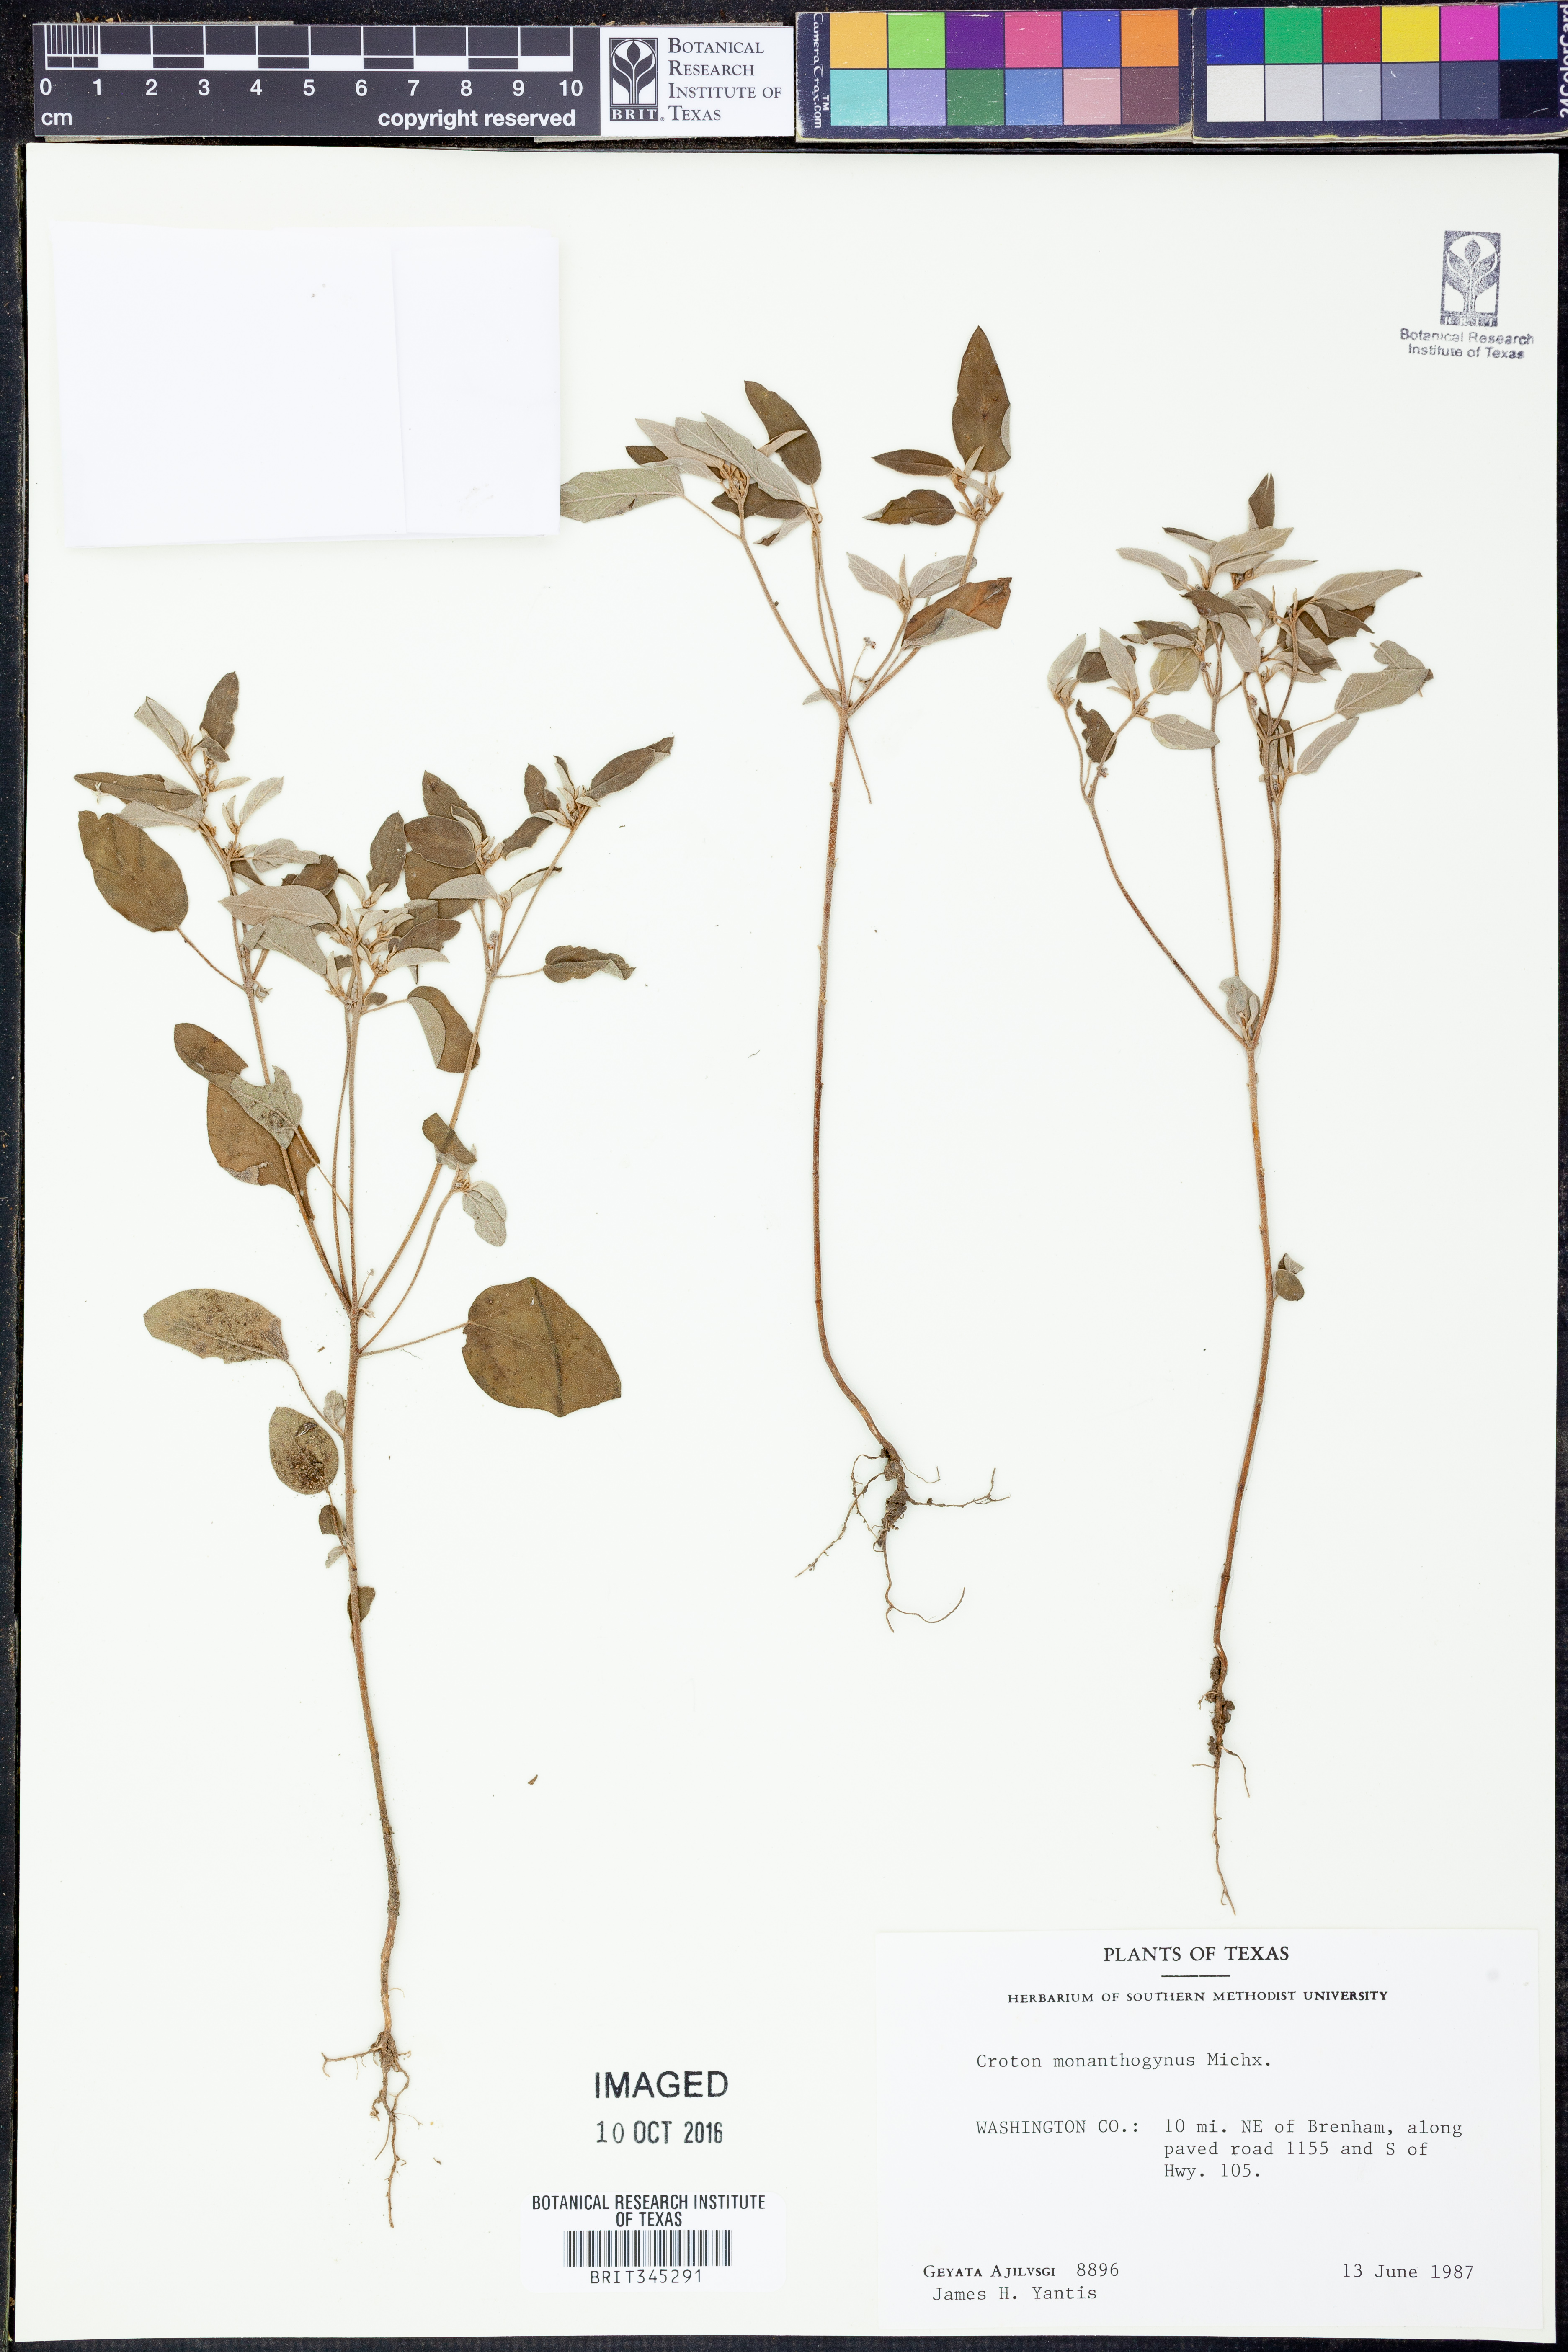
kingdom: Plantae
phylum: Tracheophyta
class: Magnoliopsida
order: Malpighiales
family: Euphorbiaceae
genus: Croton
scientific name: Croton monanthogynus
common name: One-seed croton
